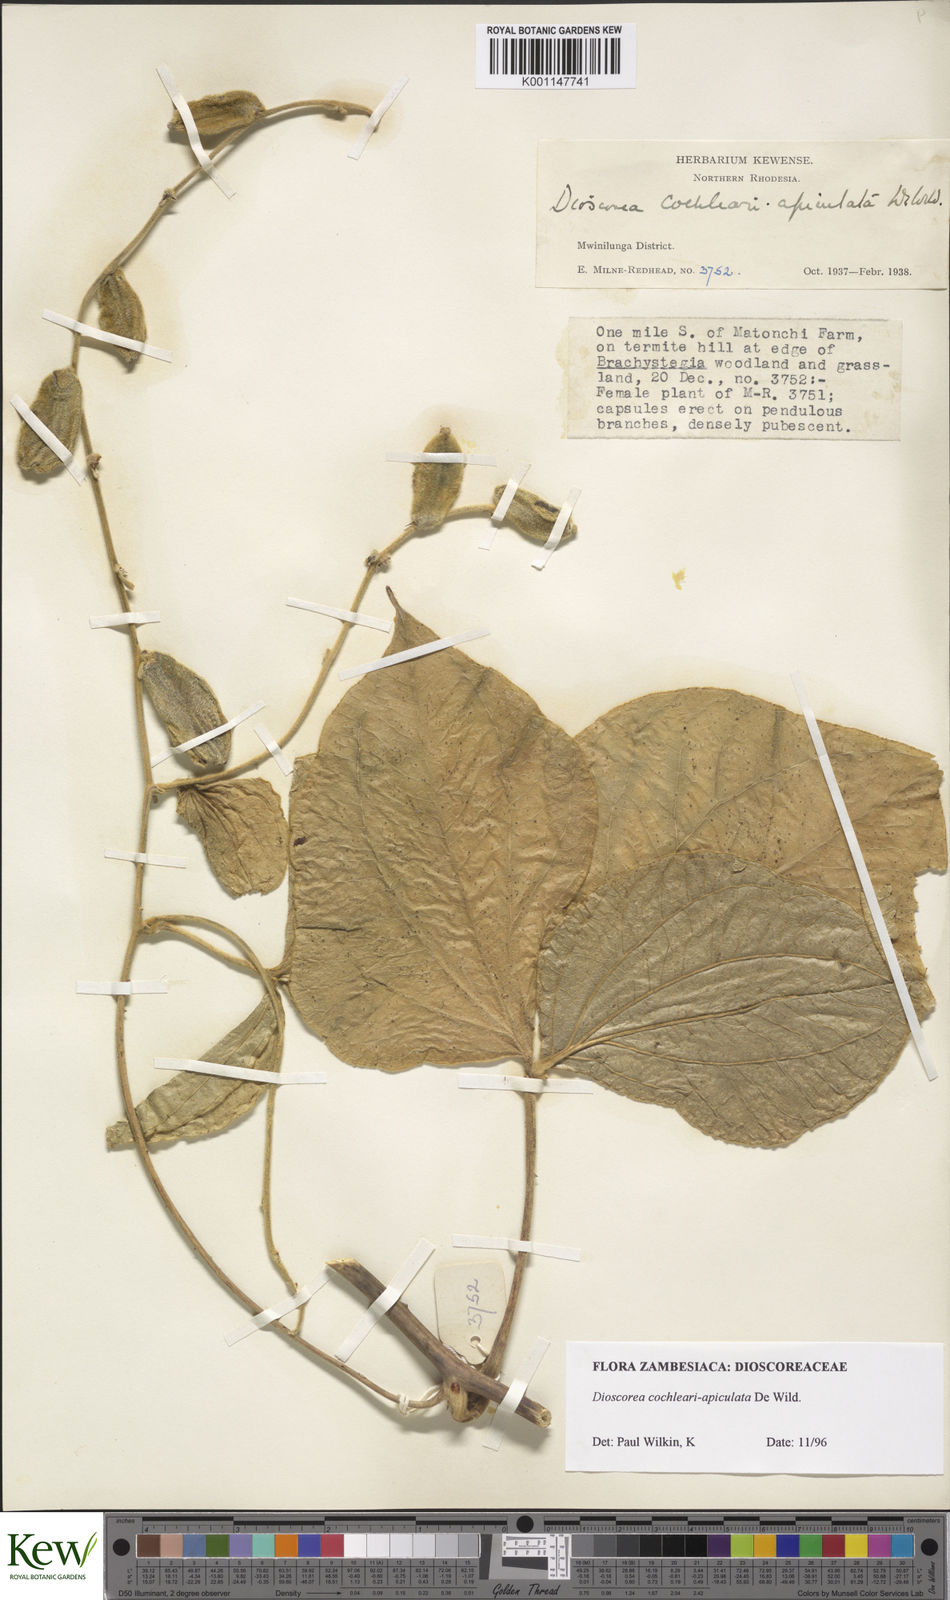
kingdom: Plantae
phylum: Tracheophyta
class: Liliopsida
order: Dioscoreales
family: Dioscoreaceae
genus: Dioscorea
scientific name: Dioscorea cochleariapiculata
